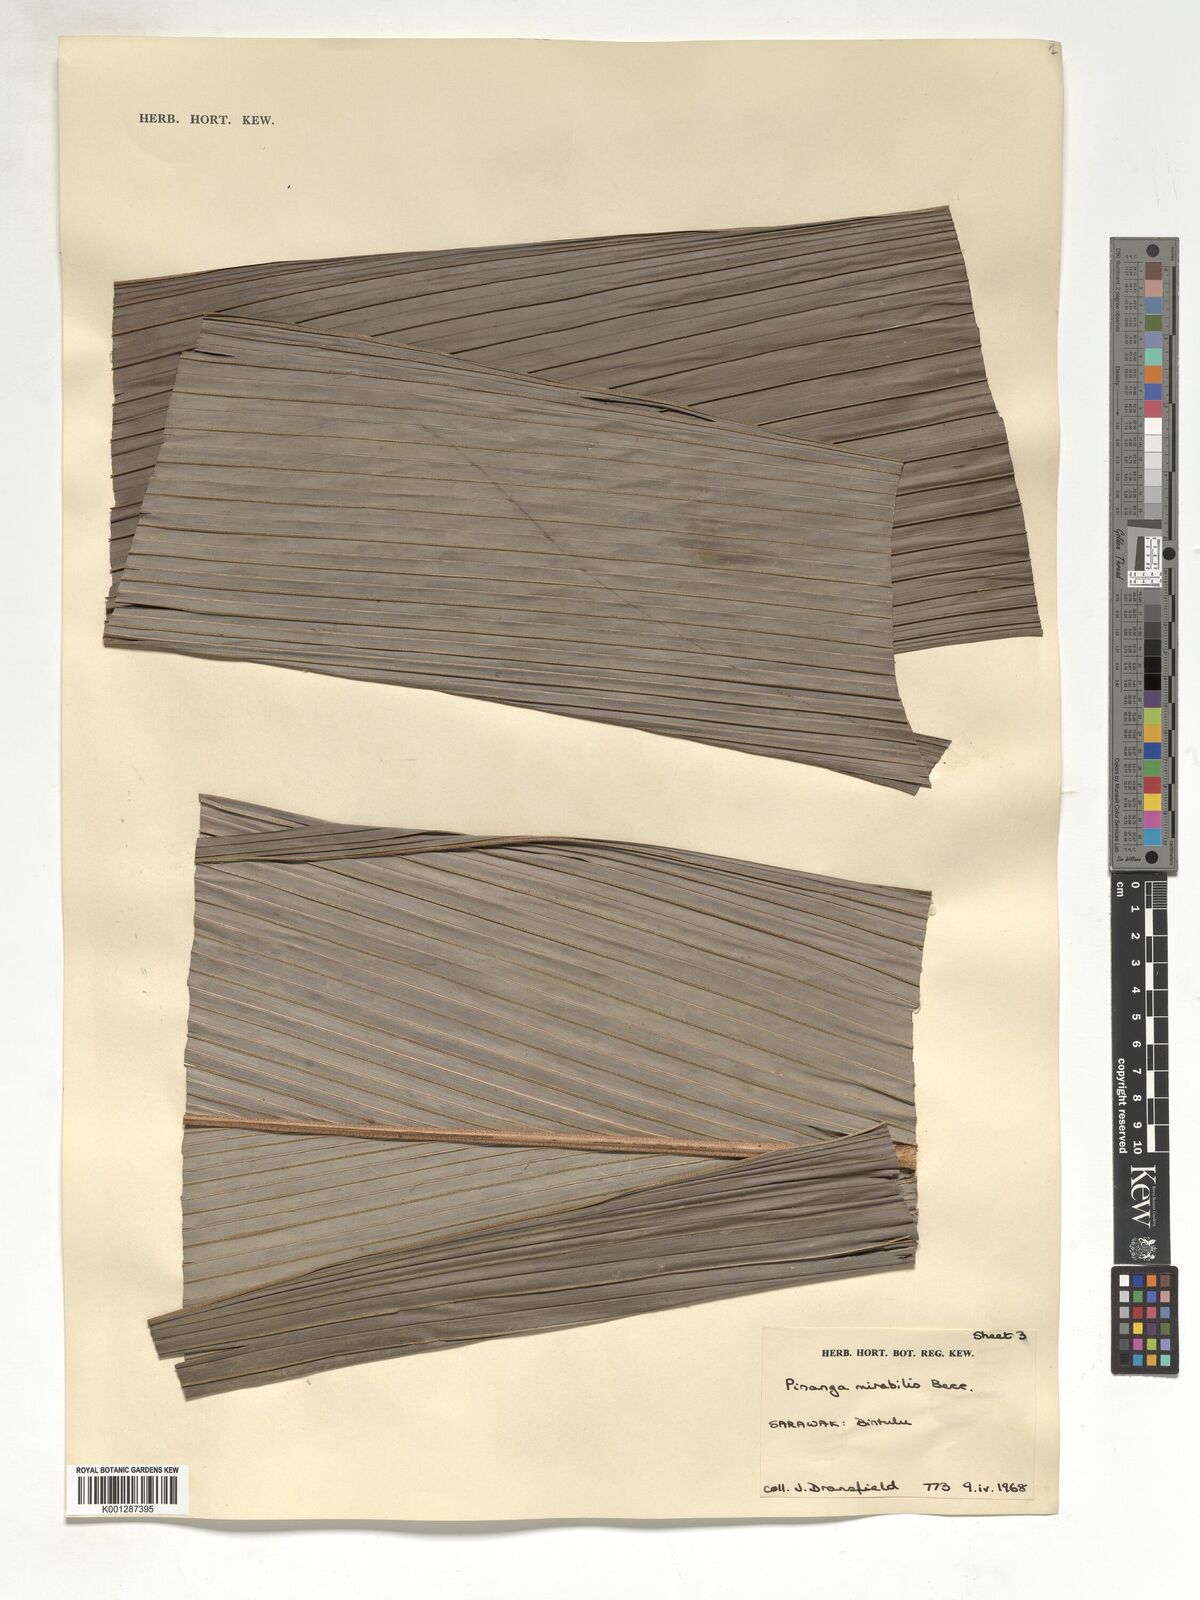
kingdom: Plantae
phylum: Tracheophyta
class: Liliopsida
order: Arecales
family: Arecaceae
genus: Pinanga
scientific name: Pinanga mirabilis
